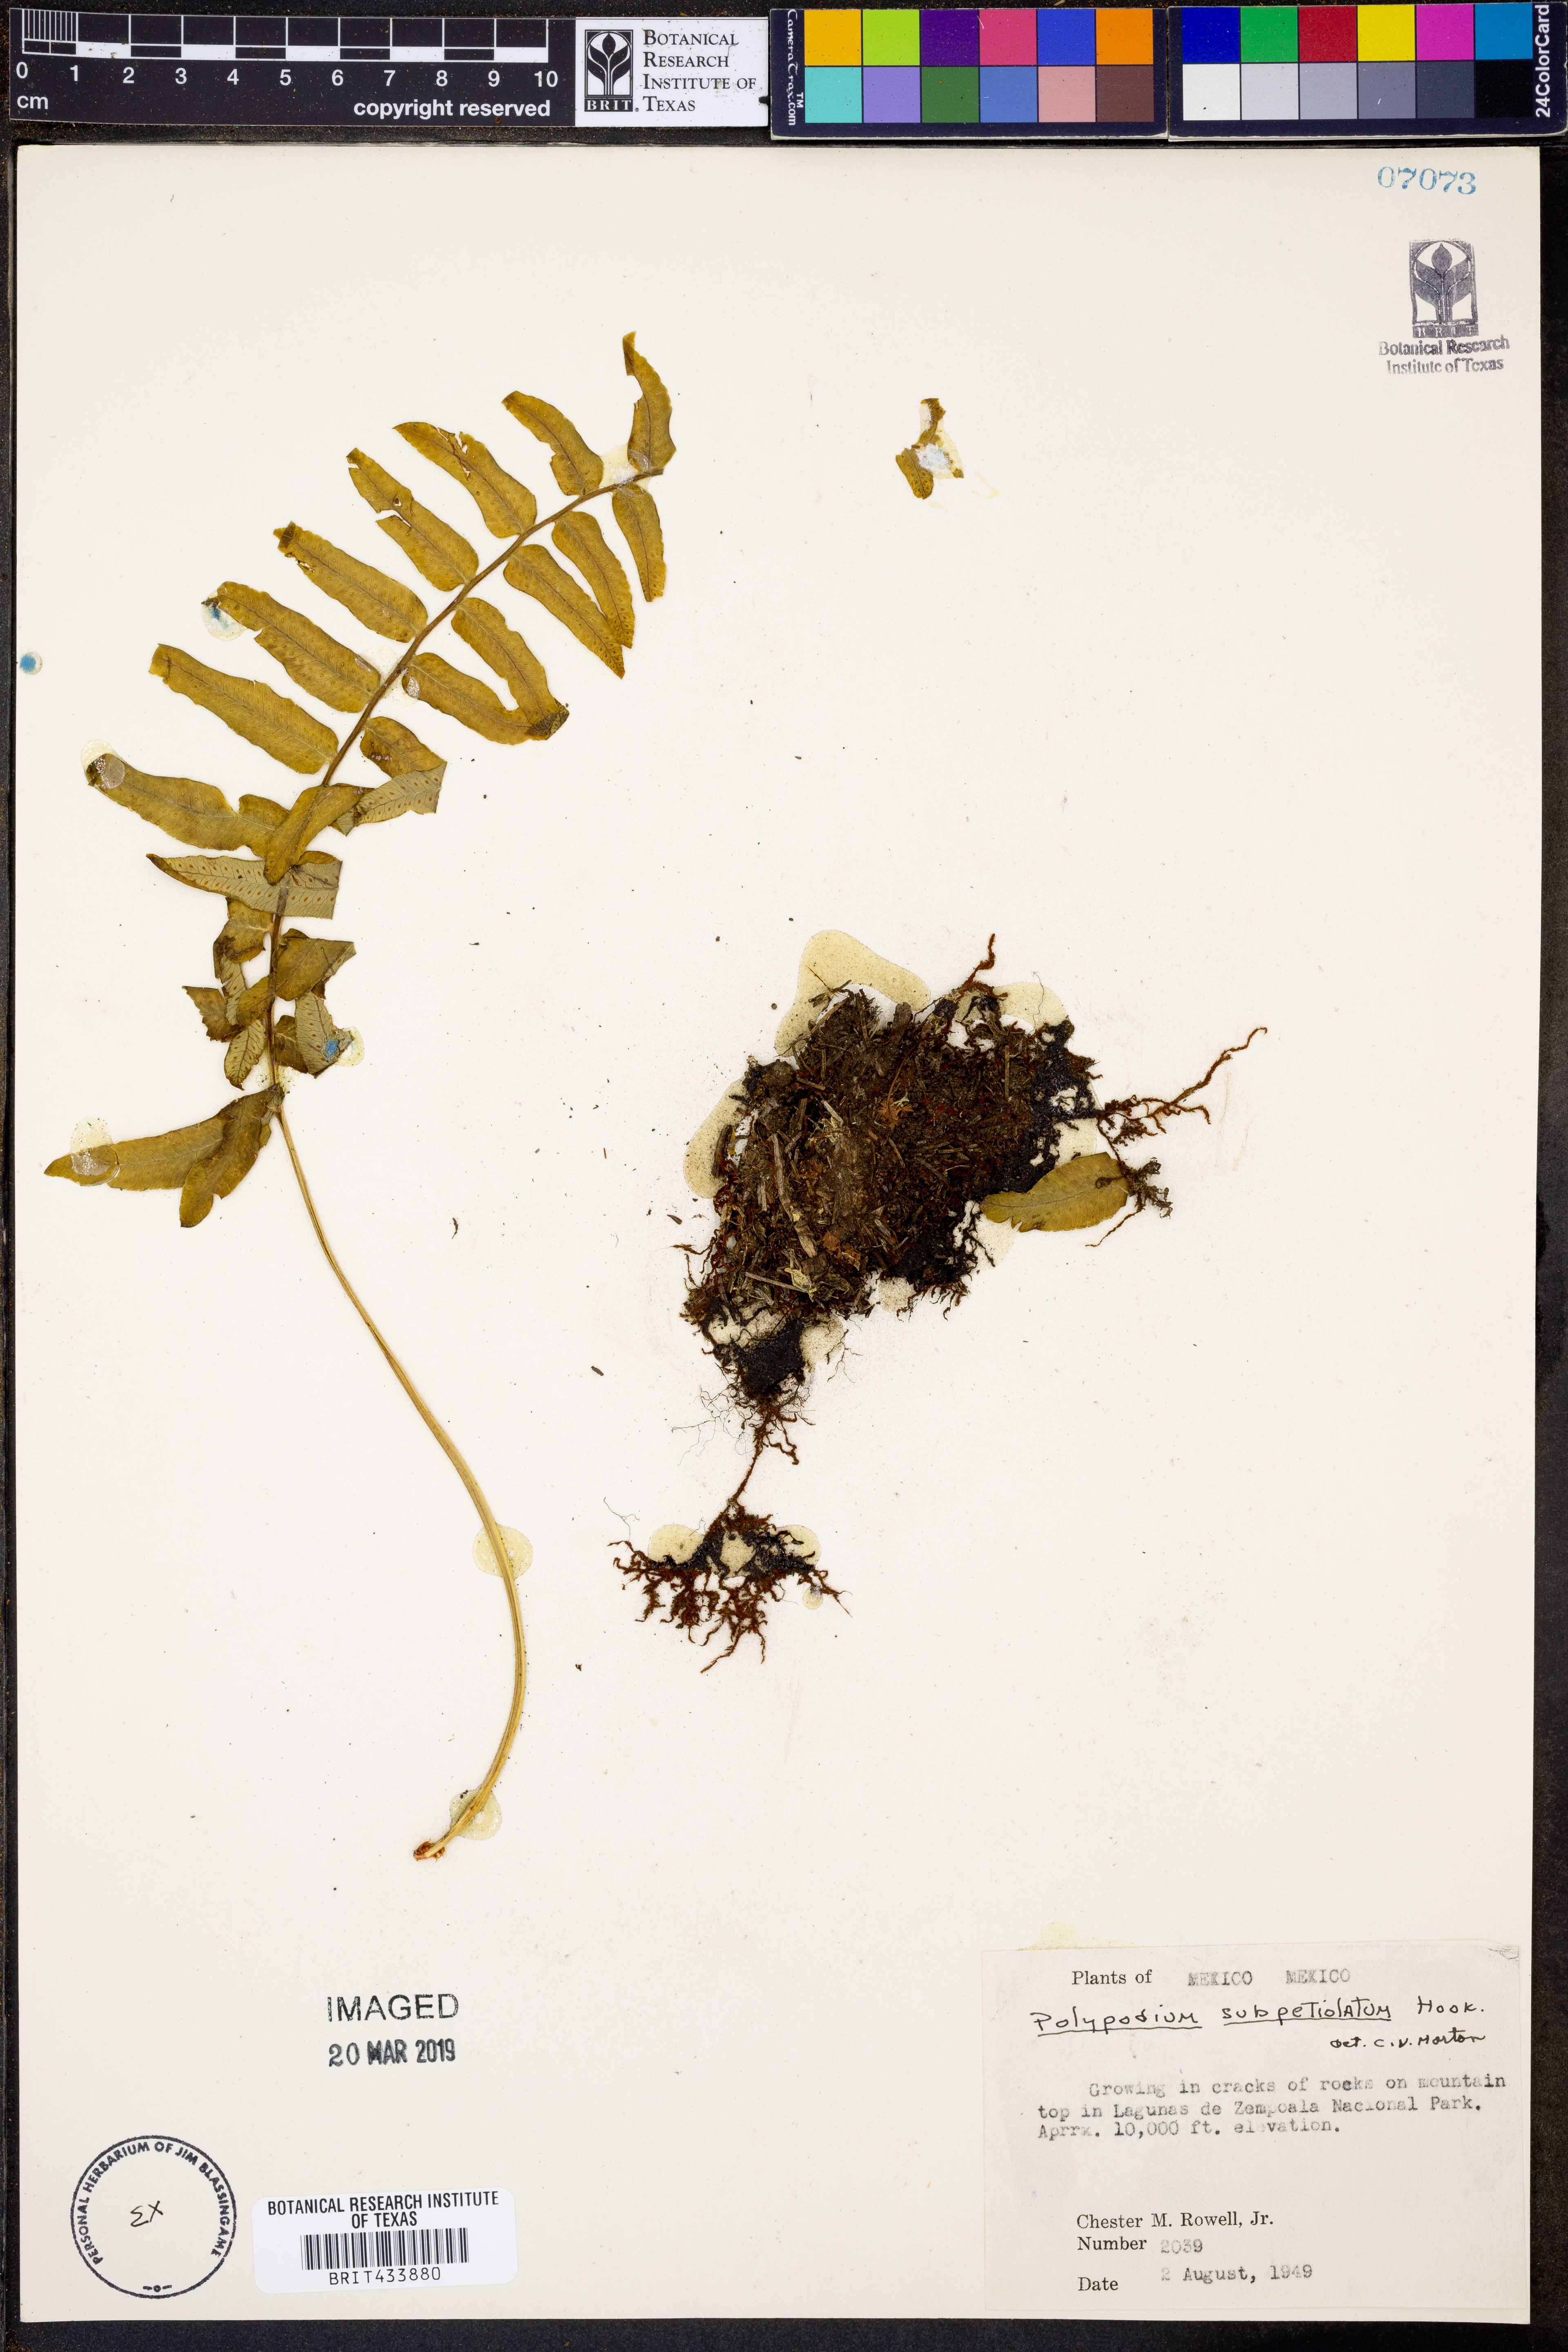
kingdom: Plantae
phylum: Tracheophyta
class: Polypodiopsida
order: Polypodiales
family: Polypodiaceae
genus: Polypodium
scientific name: Polypodium subpetiolatum
